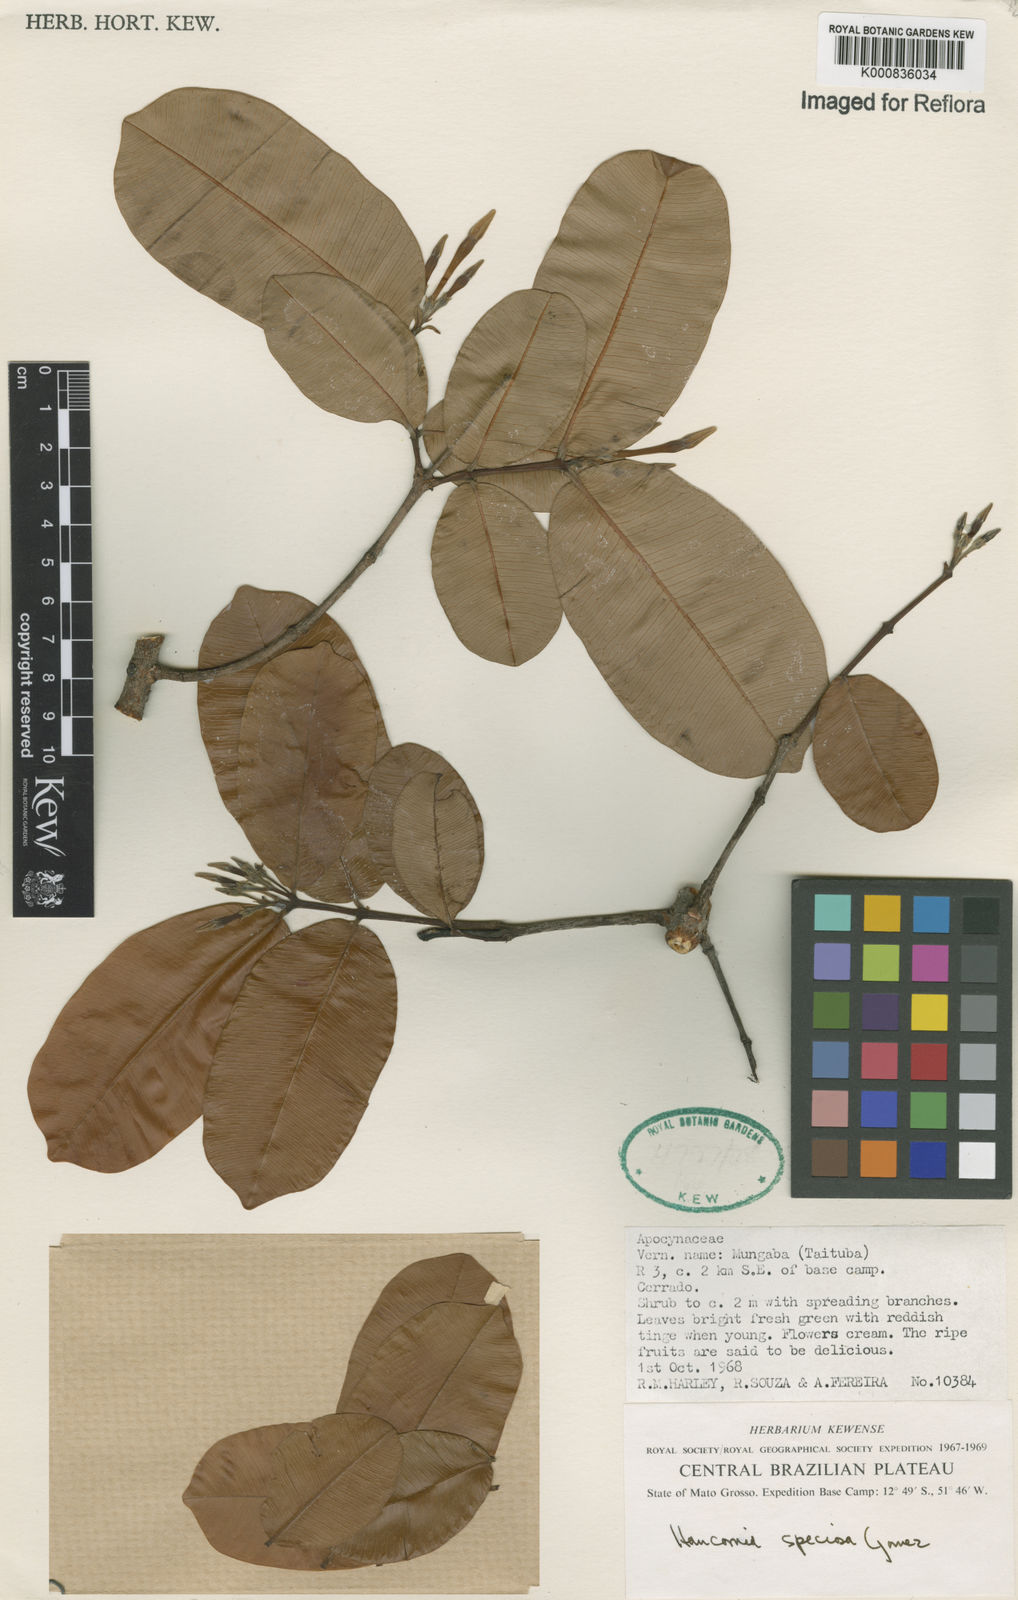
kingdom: Plantae
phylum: Tracheophyta
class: Magnoliopsida
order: Gentianales
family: Apocynaceae
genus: Hancornia
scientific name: Hancornia speciosa
